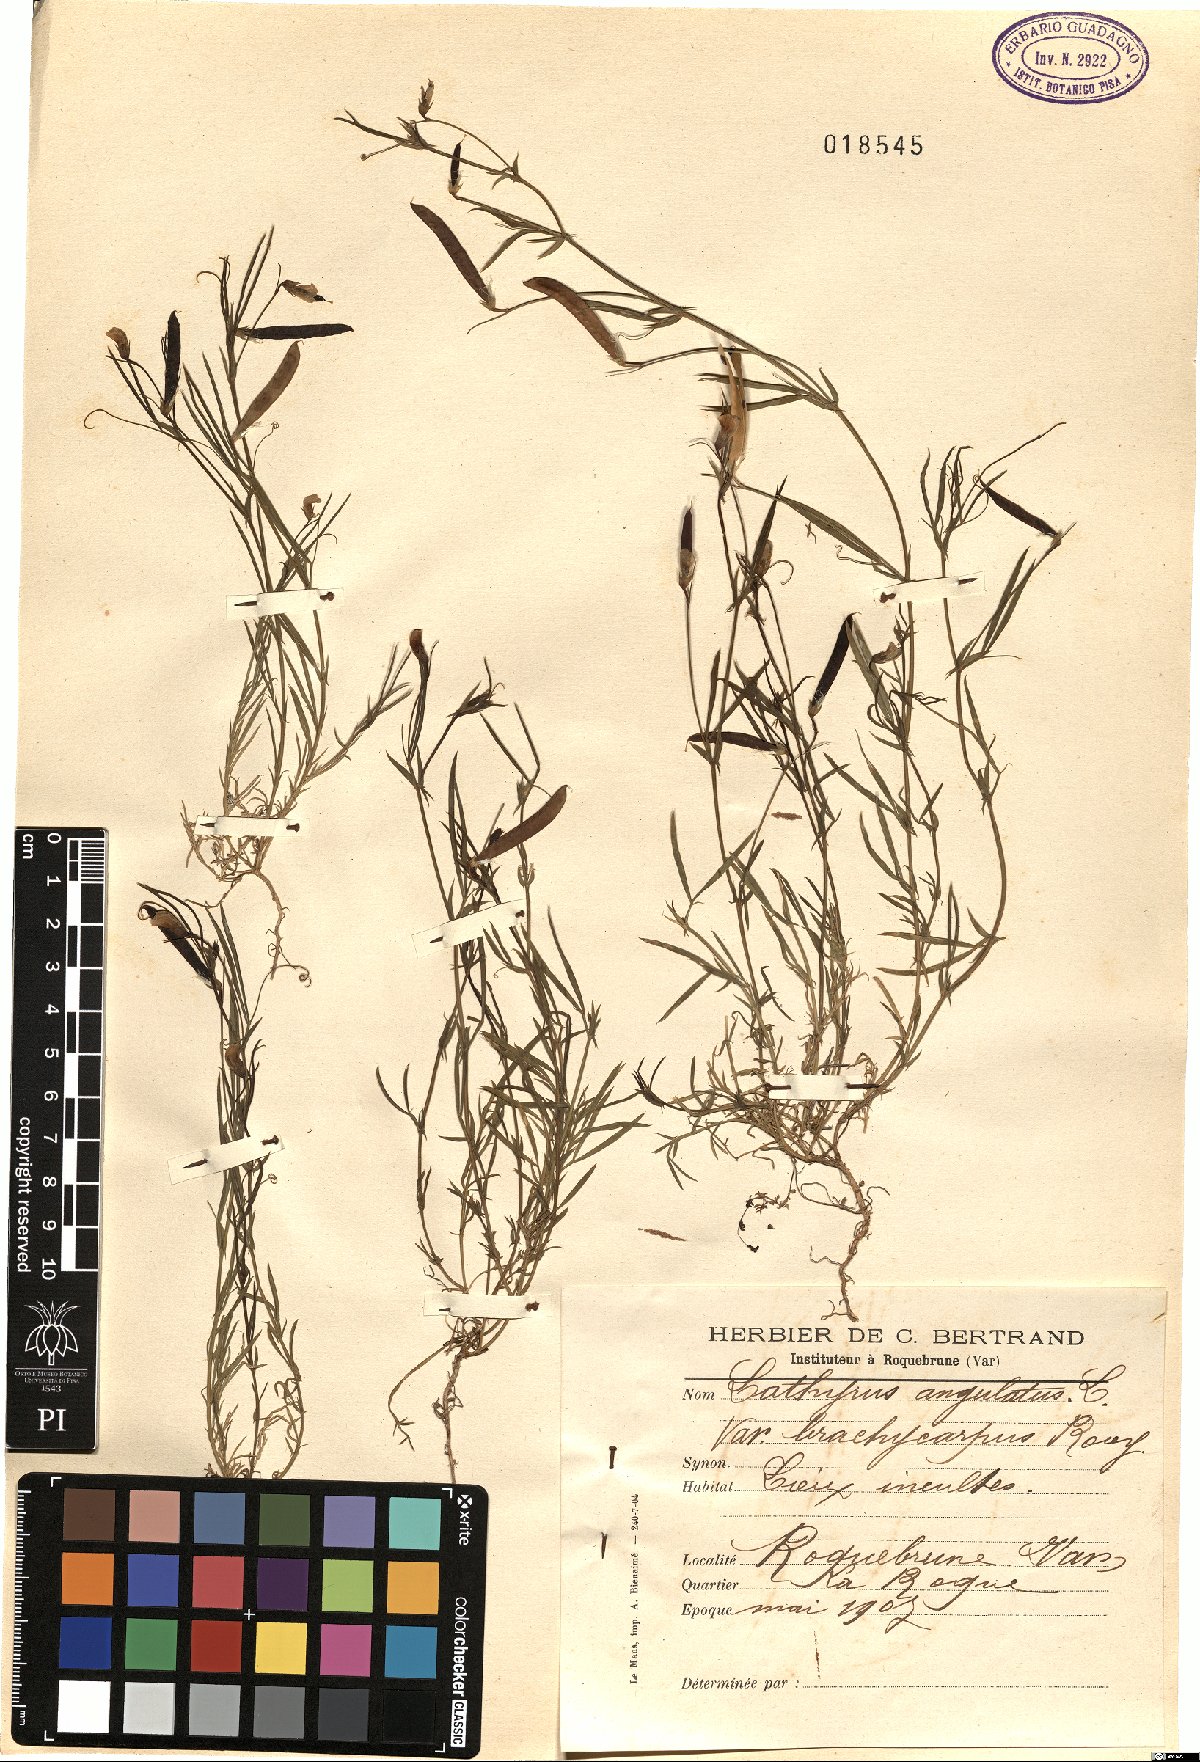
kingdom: Plantae
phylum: Tracheophyta
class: Magnoliopsida
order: Fabales
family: Fabaceae
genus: Lathyrus
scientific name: Lathyrus angulatus
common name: Angular pea
